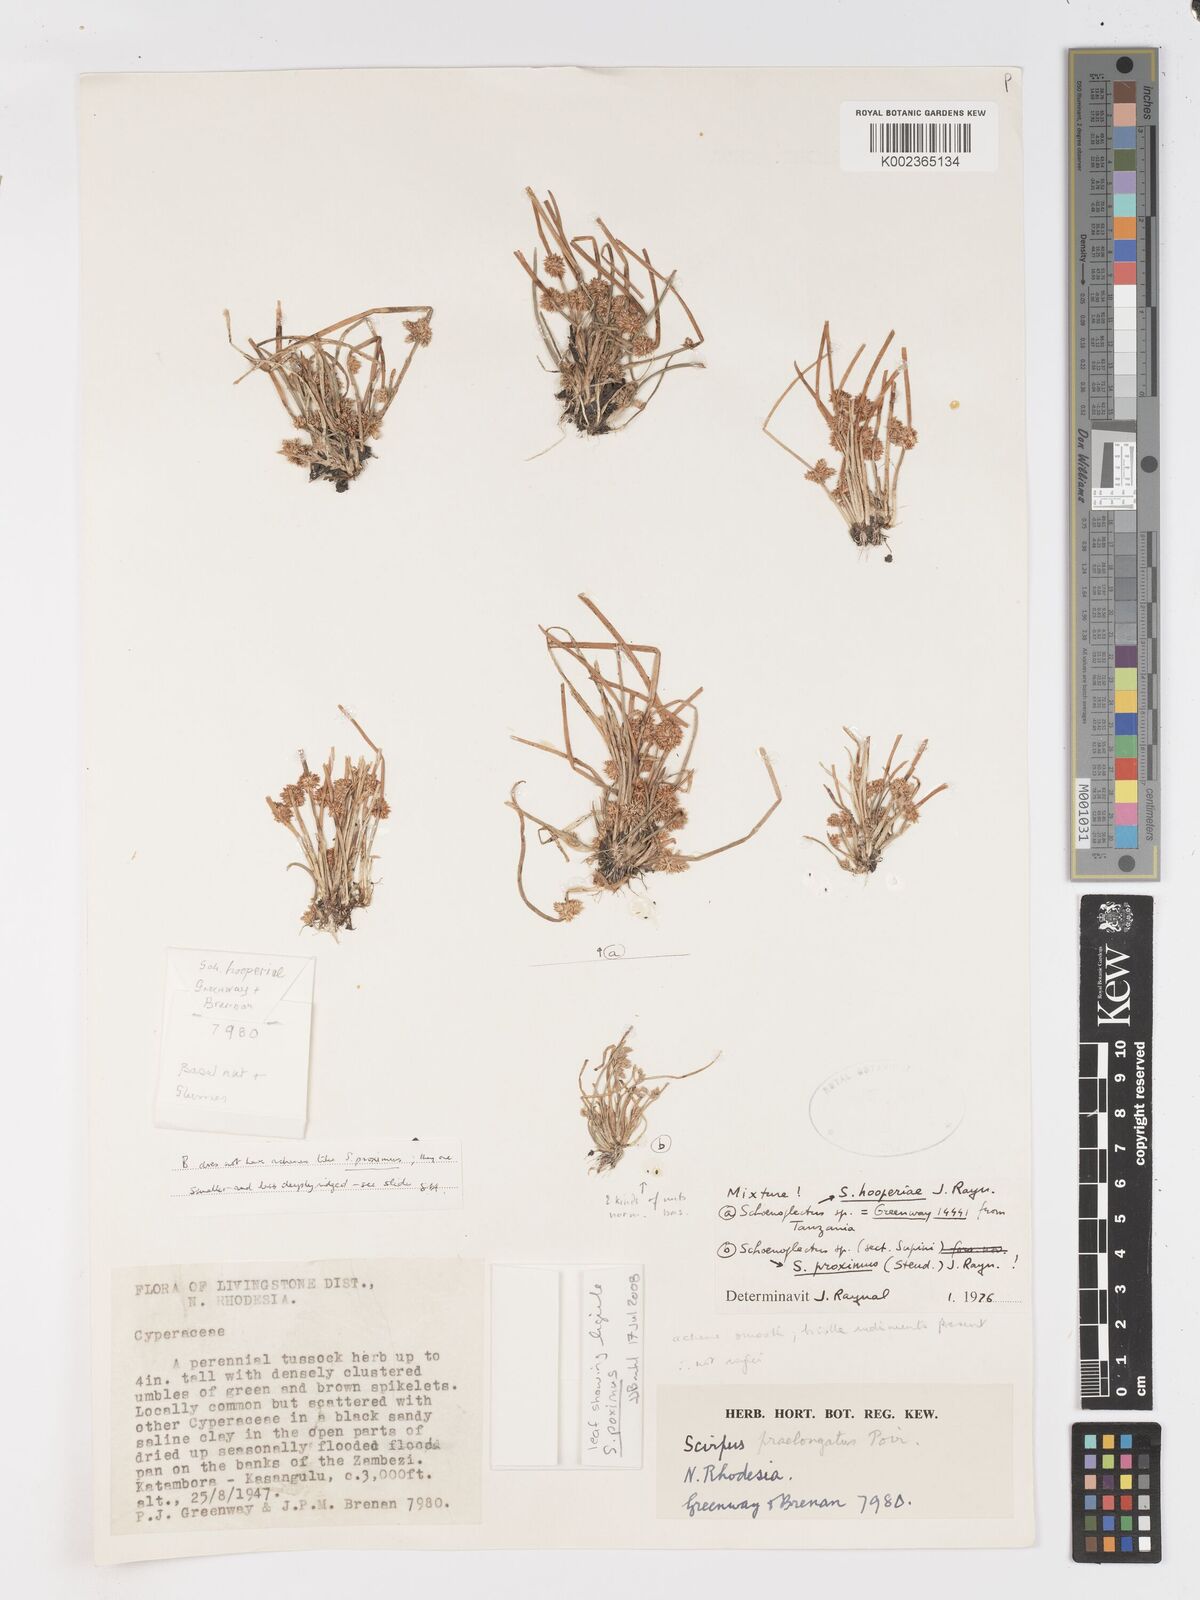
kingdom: Plantae
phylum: Tracheophyta
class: Liliopsida
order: Poales
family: Cyperaceae
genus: Schoenoplectiella
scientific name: Schoenoplectiella hooperae
